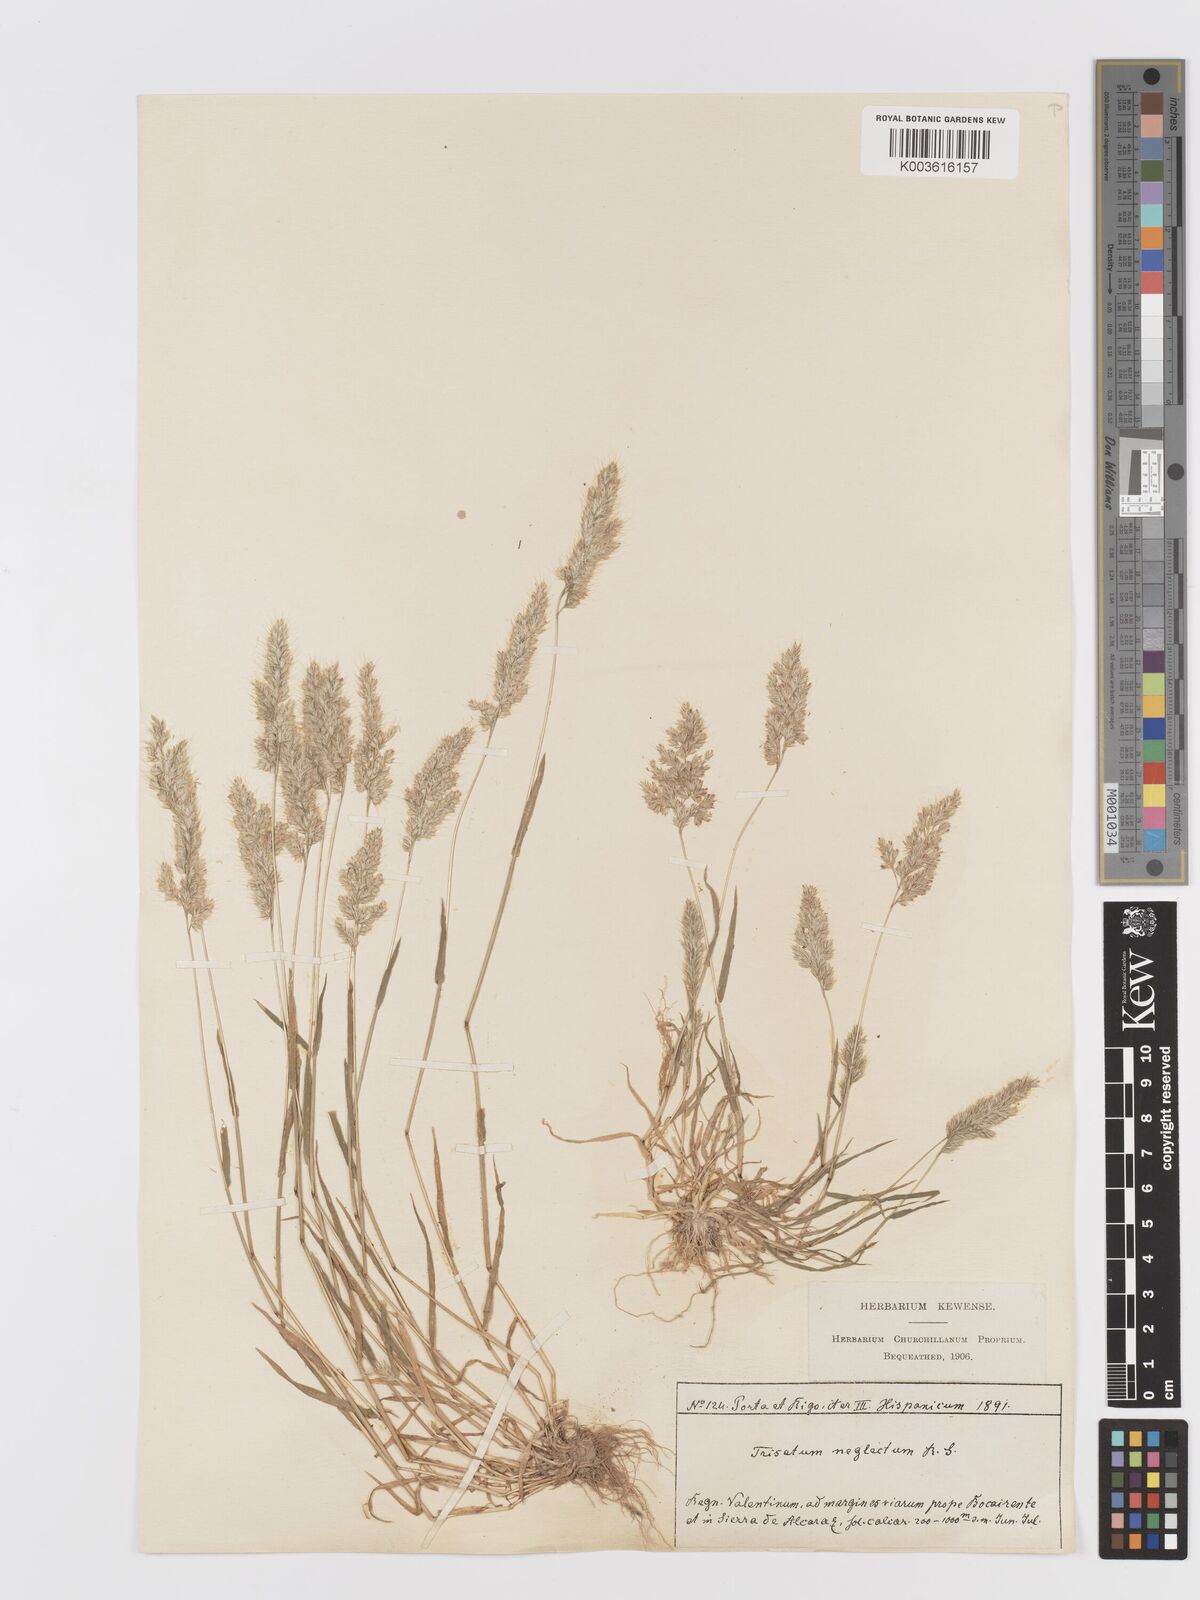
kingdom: Plantae
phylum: Tracheophyta
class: Liliopsida
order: Poales
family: Poaceae
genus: Trisetaria
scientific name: Trisetaria panicea
